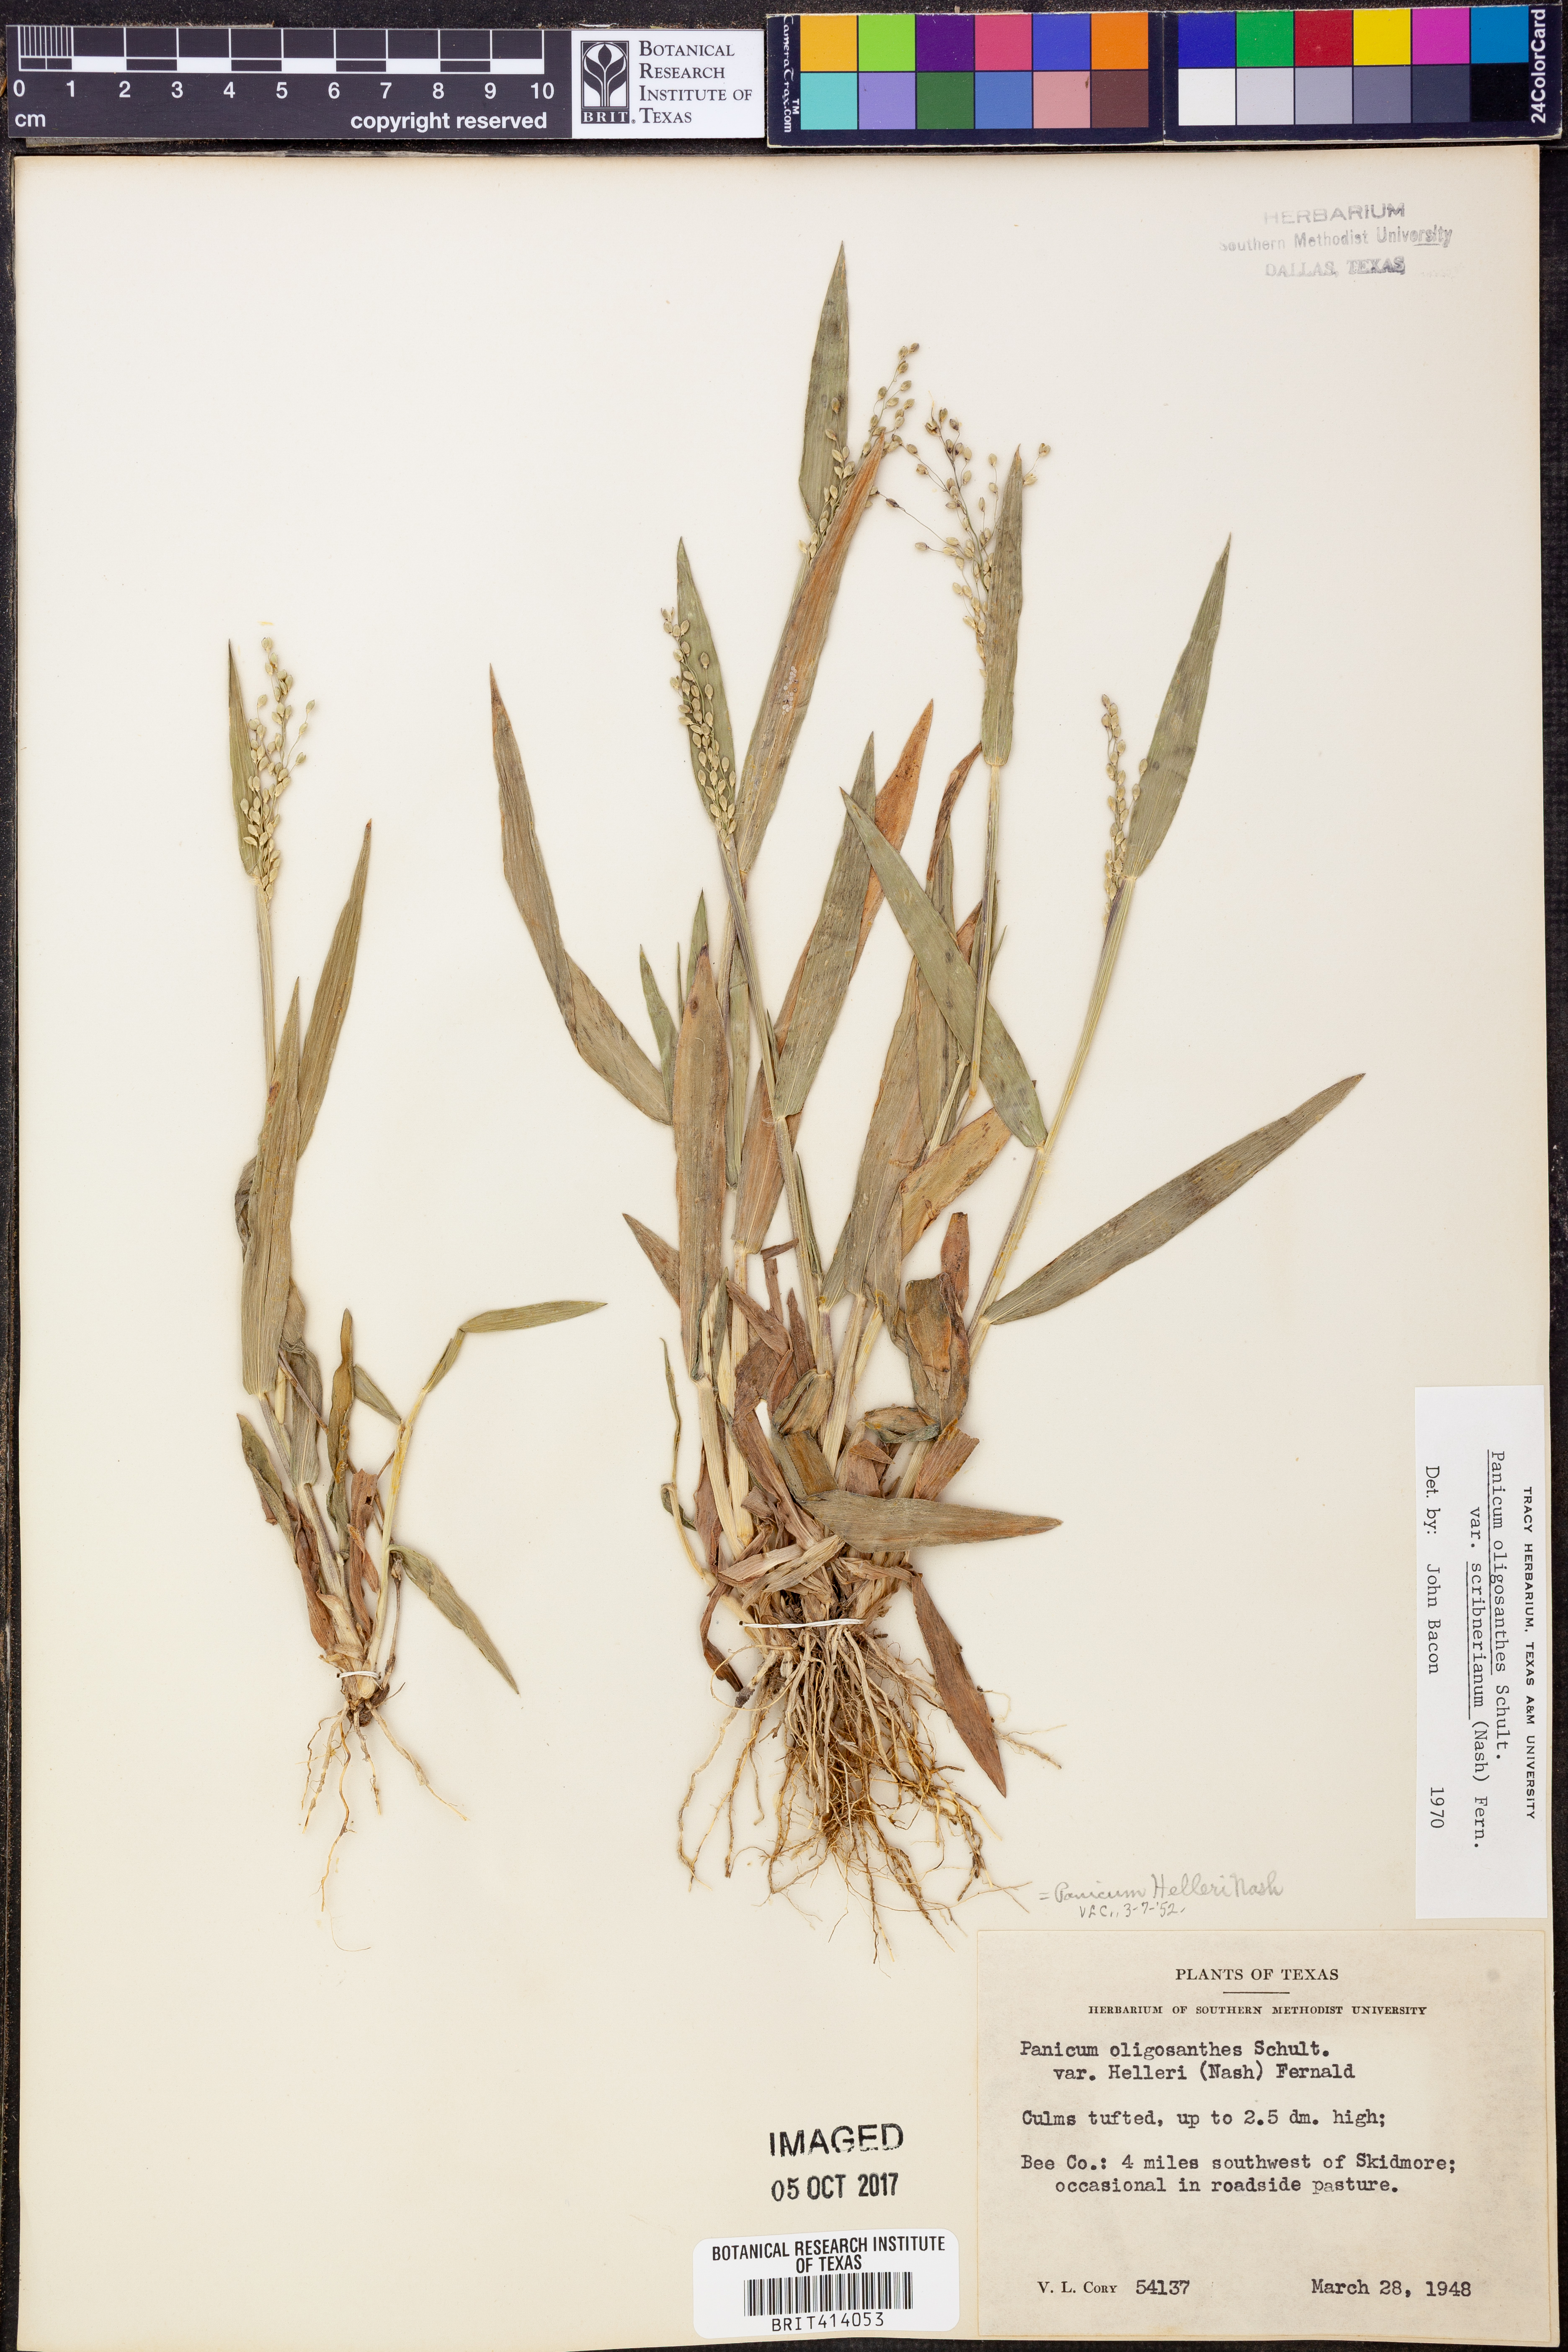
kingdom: Plantae
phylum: Tracheophyta
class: Liliopsida
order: Poales
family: Poaceae
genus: Dichanthelium
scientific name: Dichanthelium scribnerianum
